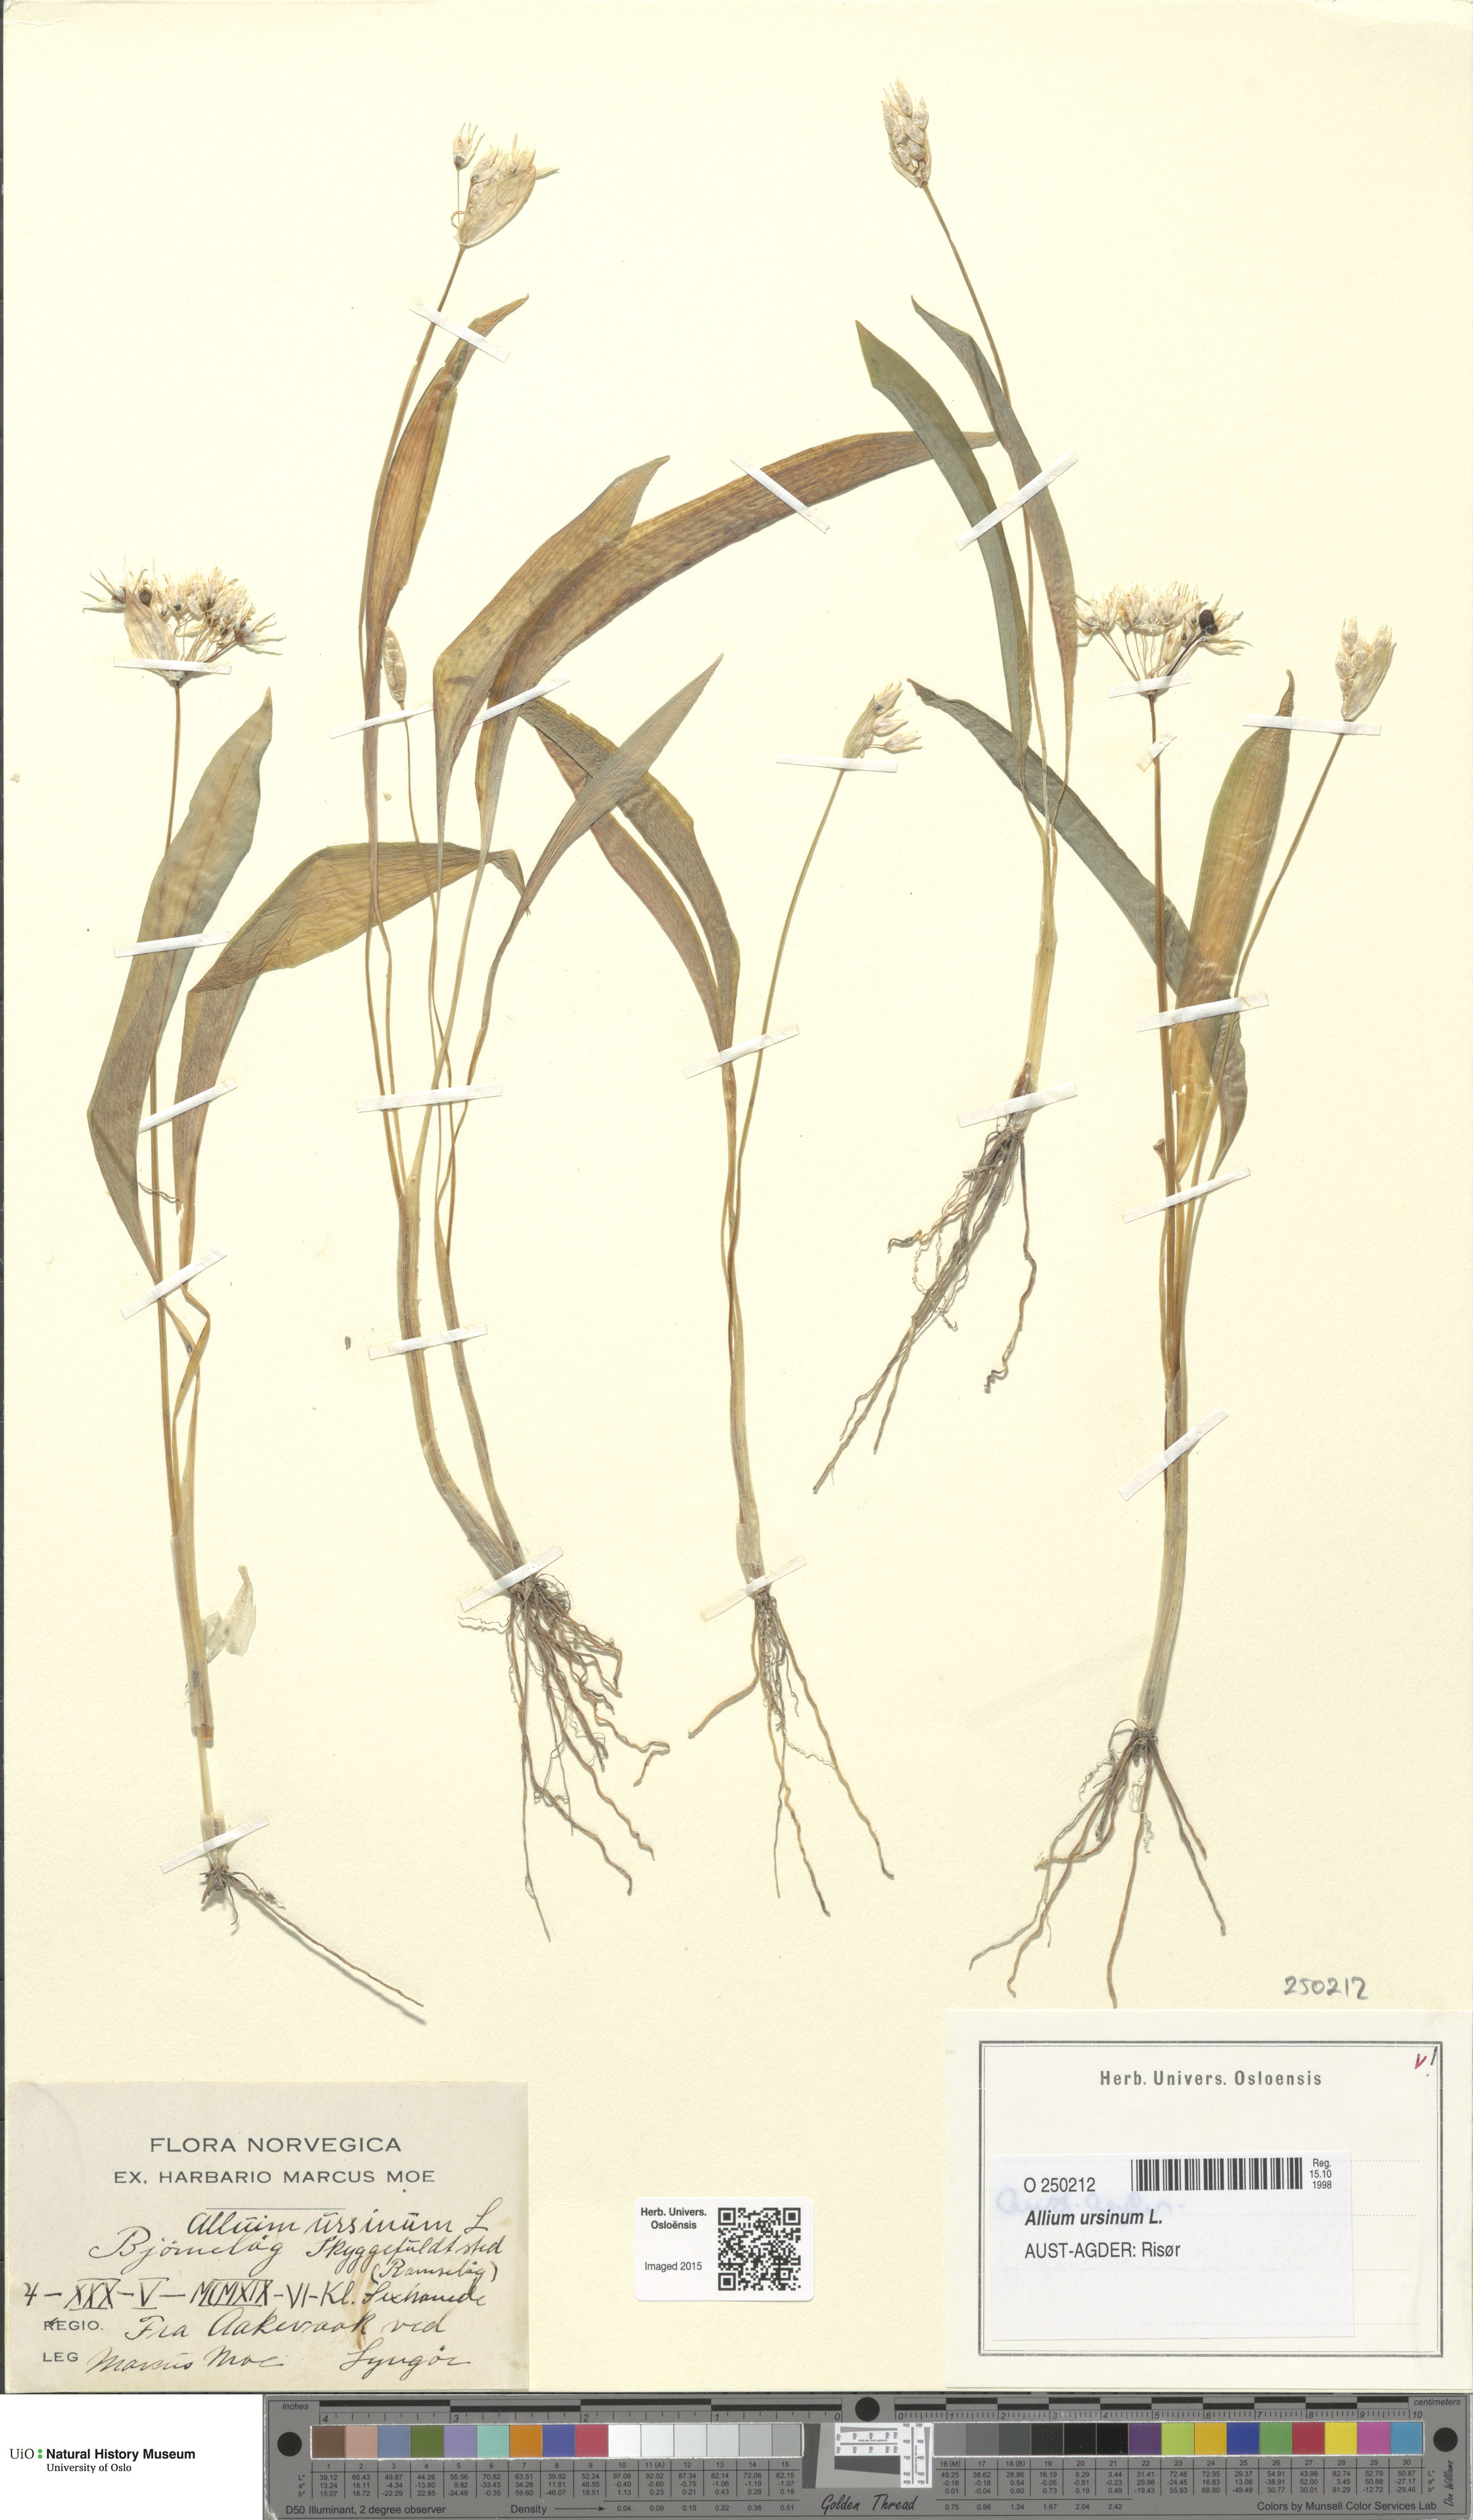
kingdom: Plantae
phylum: Tracheophyta
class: Liliopsida
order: Asparagales
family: Amaryllidaceae
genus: Allium
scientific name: Allium ursinum
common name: Ramsons
